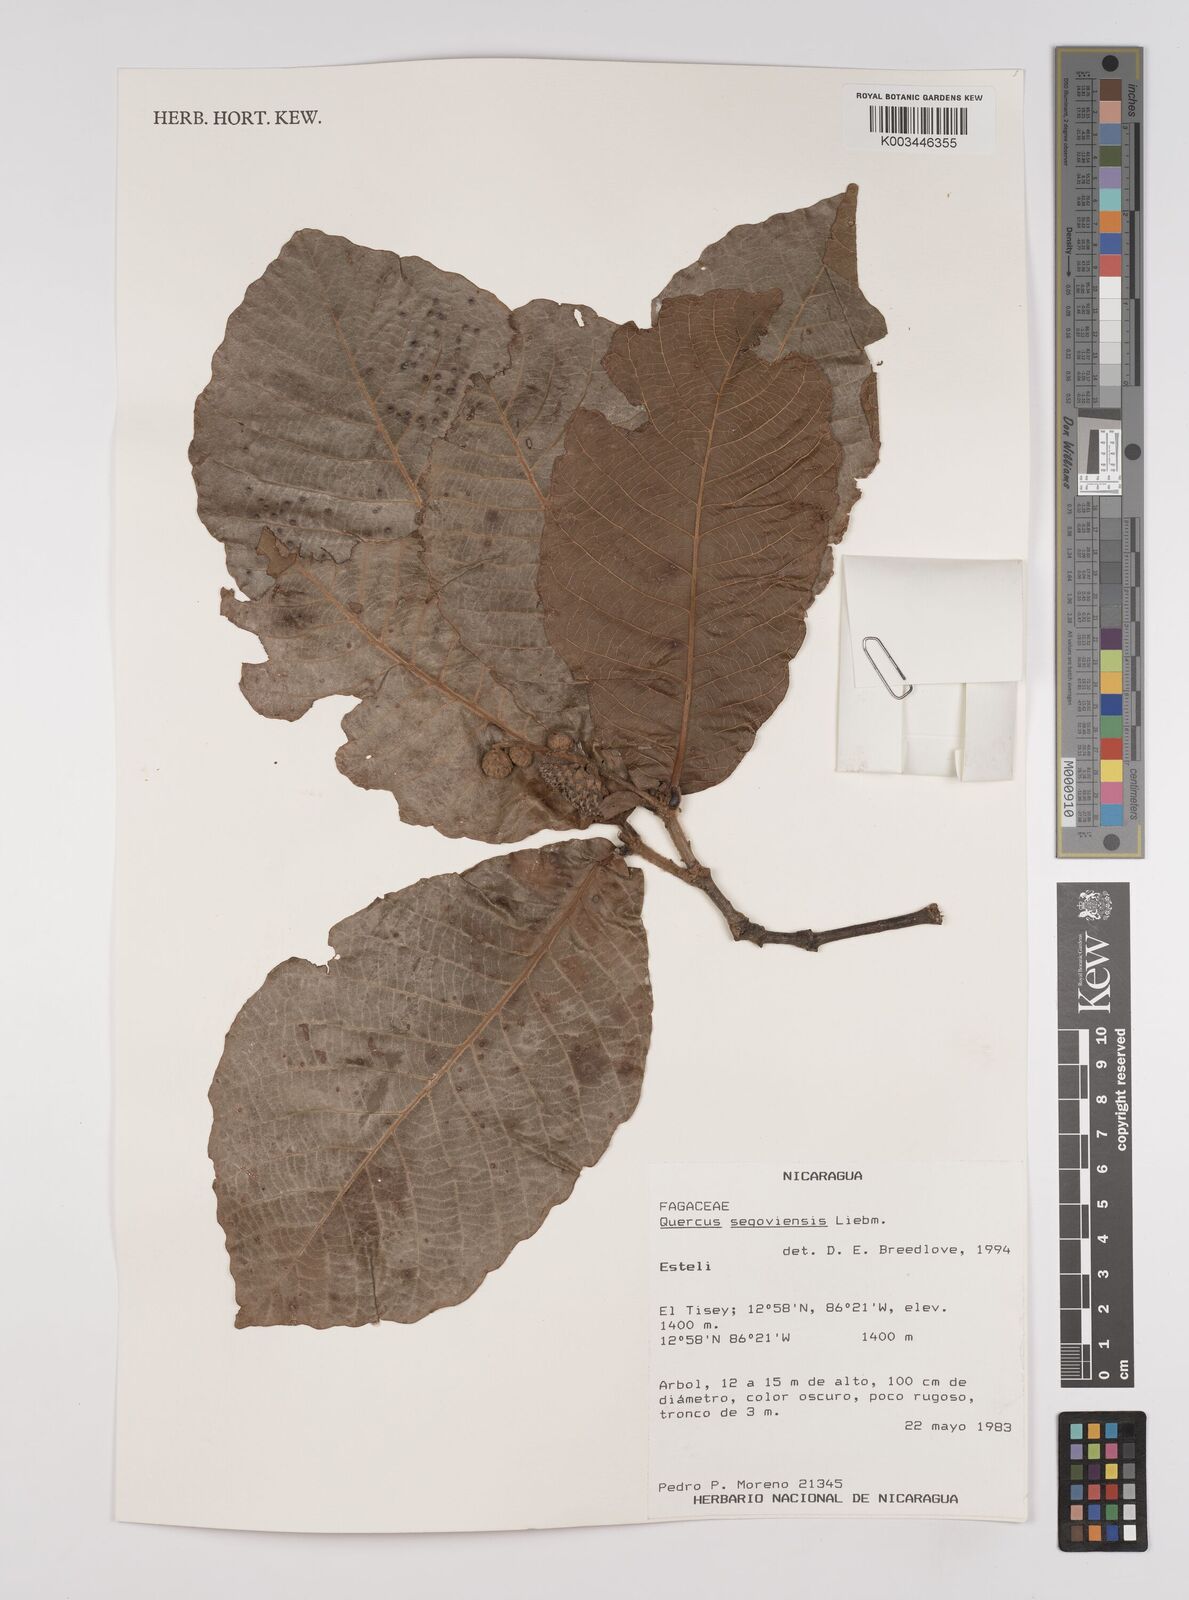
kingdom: Plantae
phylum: Tracheophyta
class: Magnoliopsida
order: Fagales
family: Fagaceae
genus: Quercus
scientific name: Quercus segoviensis
